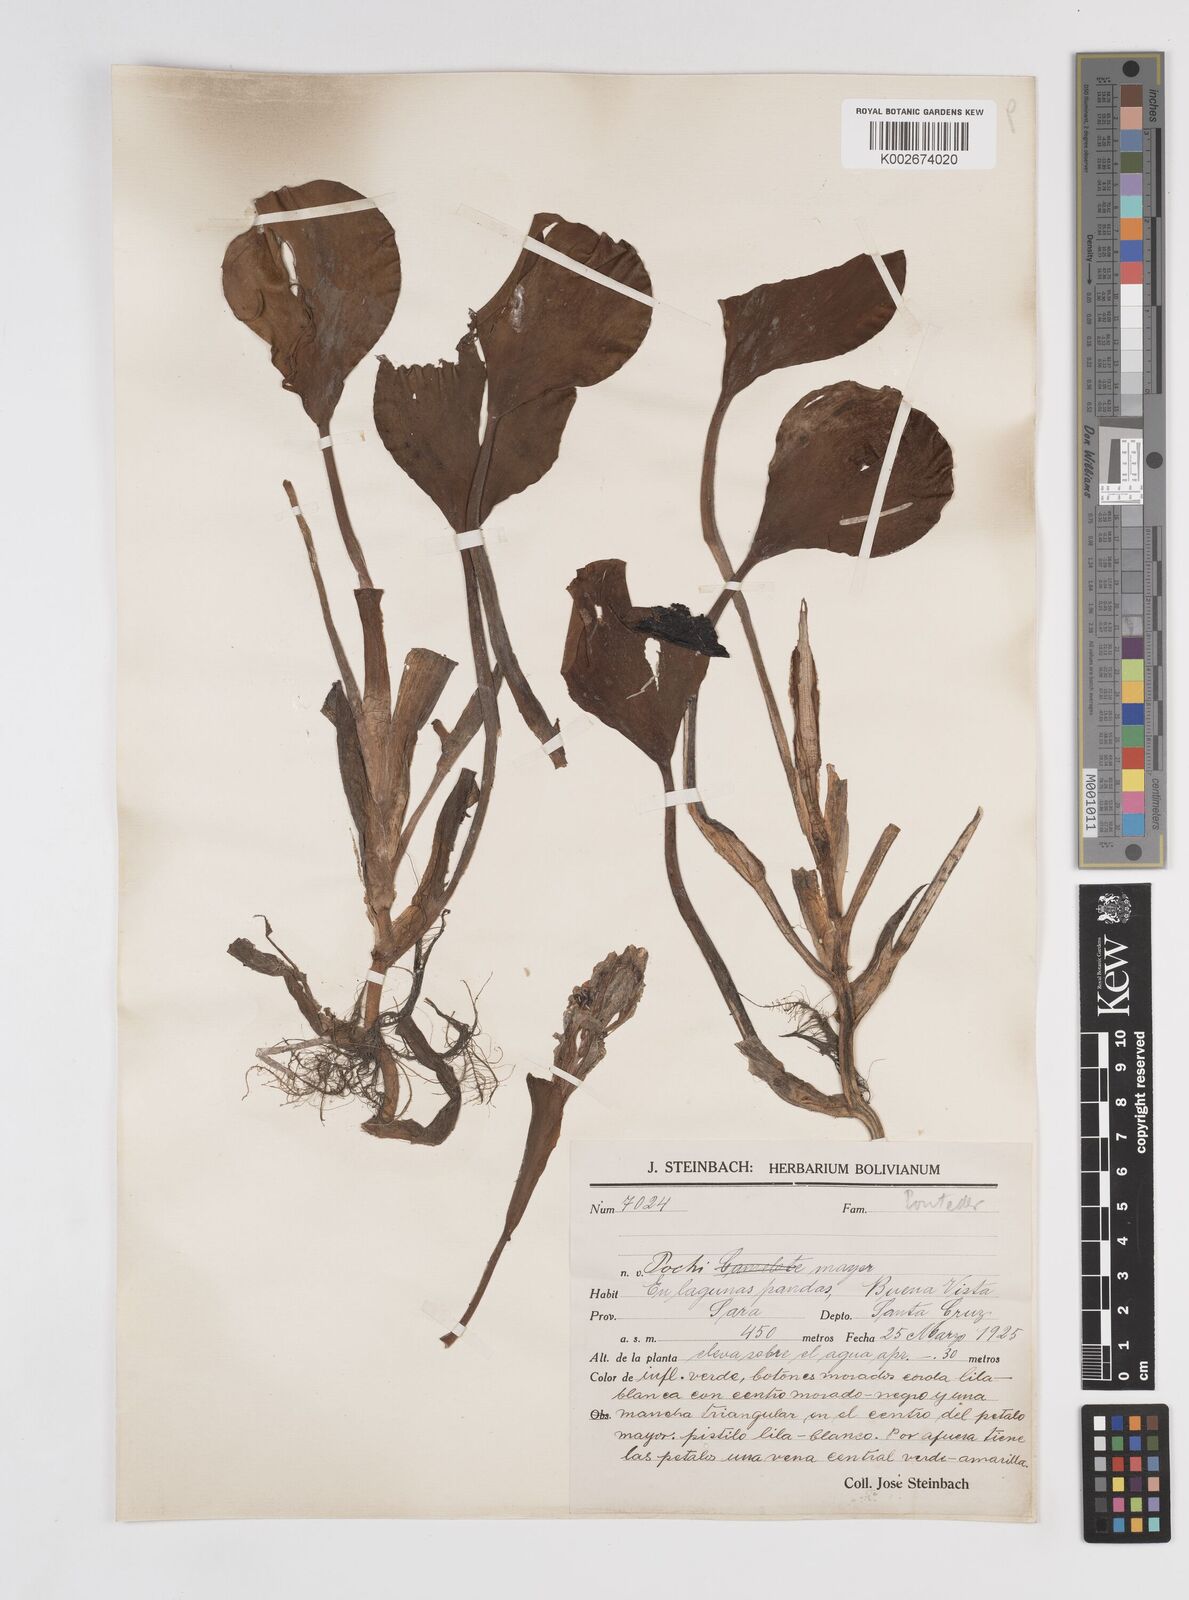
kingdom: Plantae
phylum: Tracheophyta
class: Liliopsida
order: Commelinales
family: Pontederiaceae
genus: Pontederia
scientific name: Pontederia azurea
